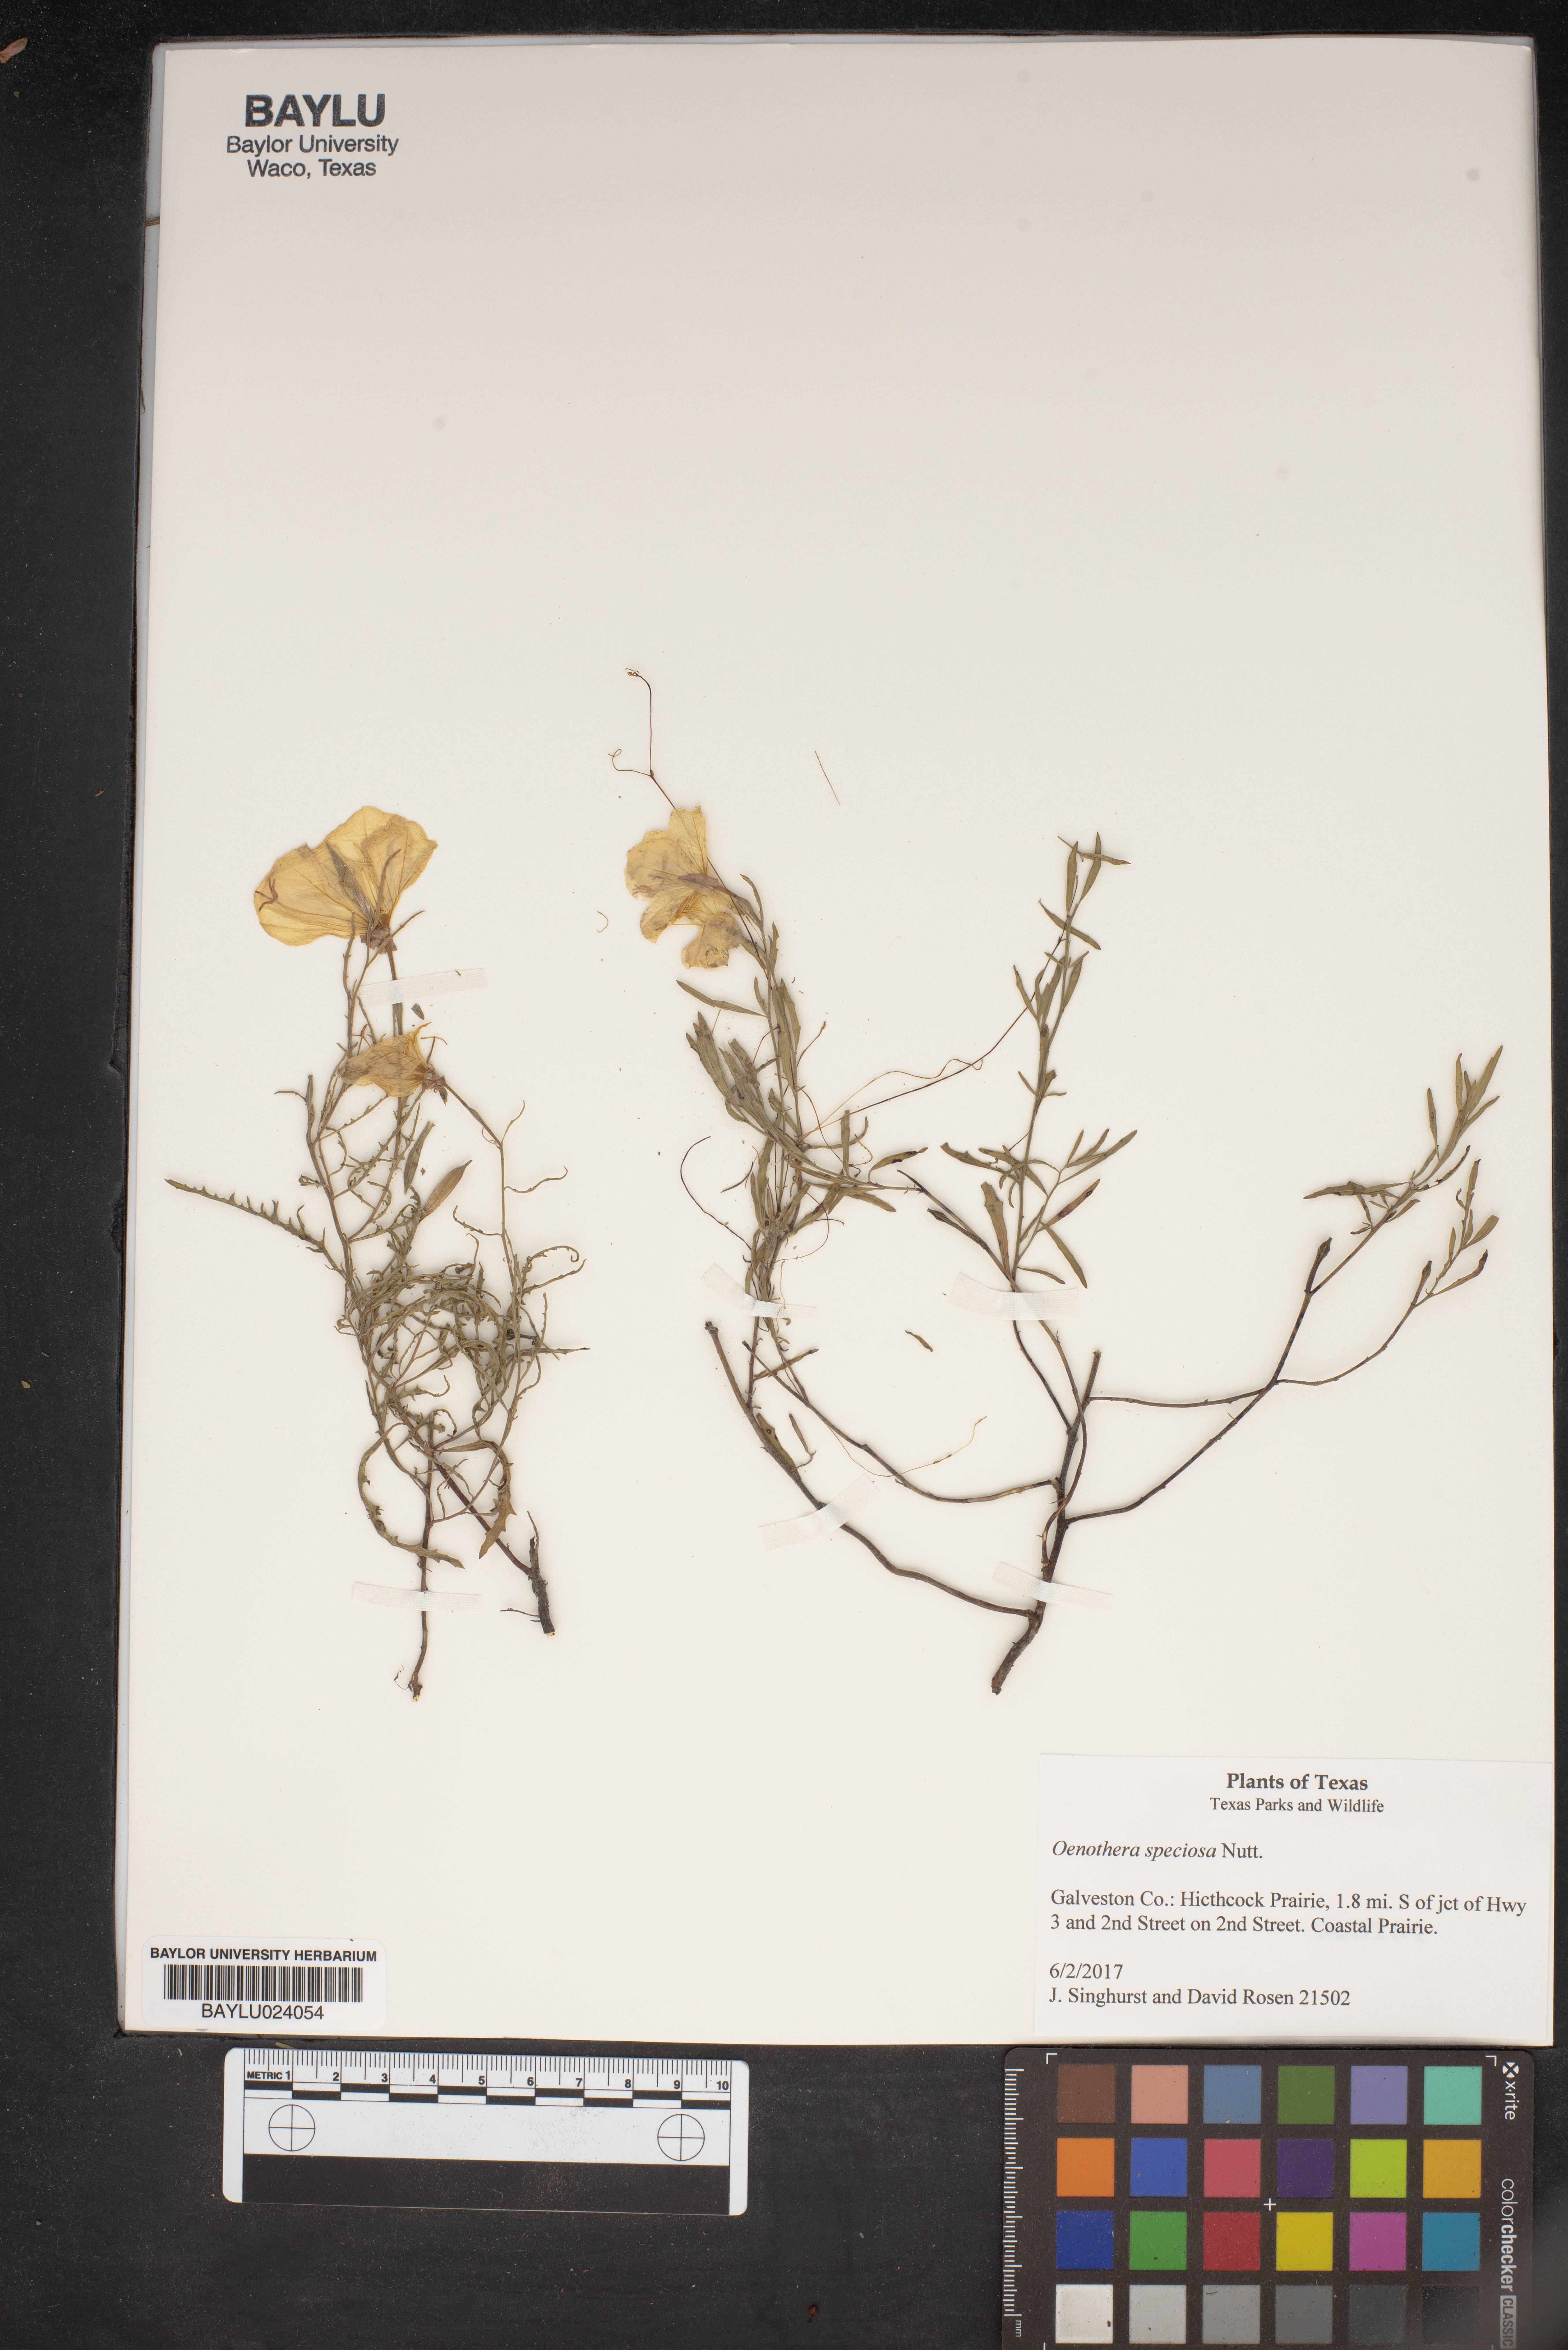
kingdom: Plantae
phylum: Tracheophyta
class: Magnoliopsida
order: Myrtales
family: Onagraceae
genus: Oenothera
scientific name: Oenothera speciosa
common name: White evening-primrose
